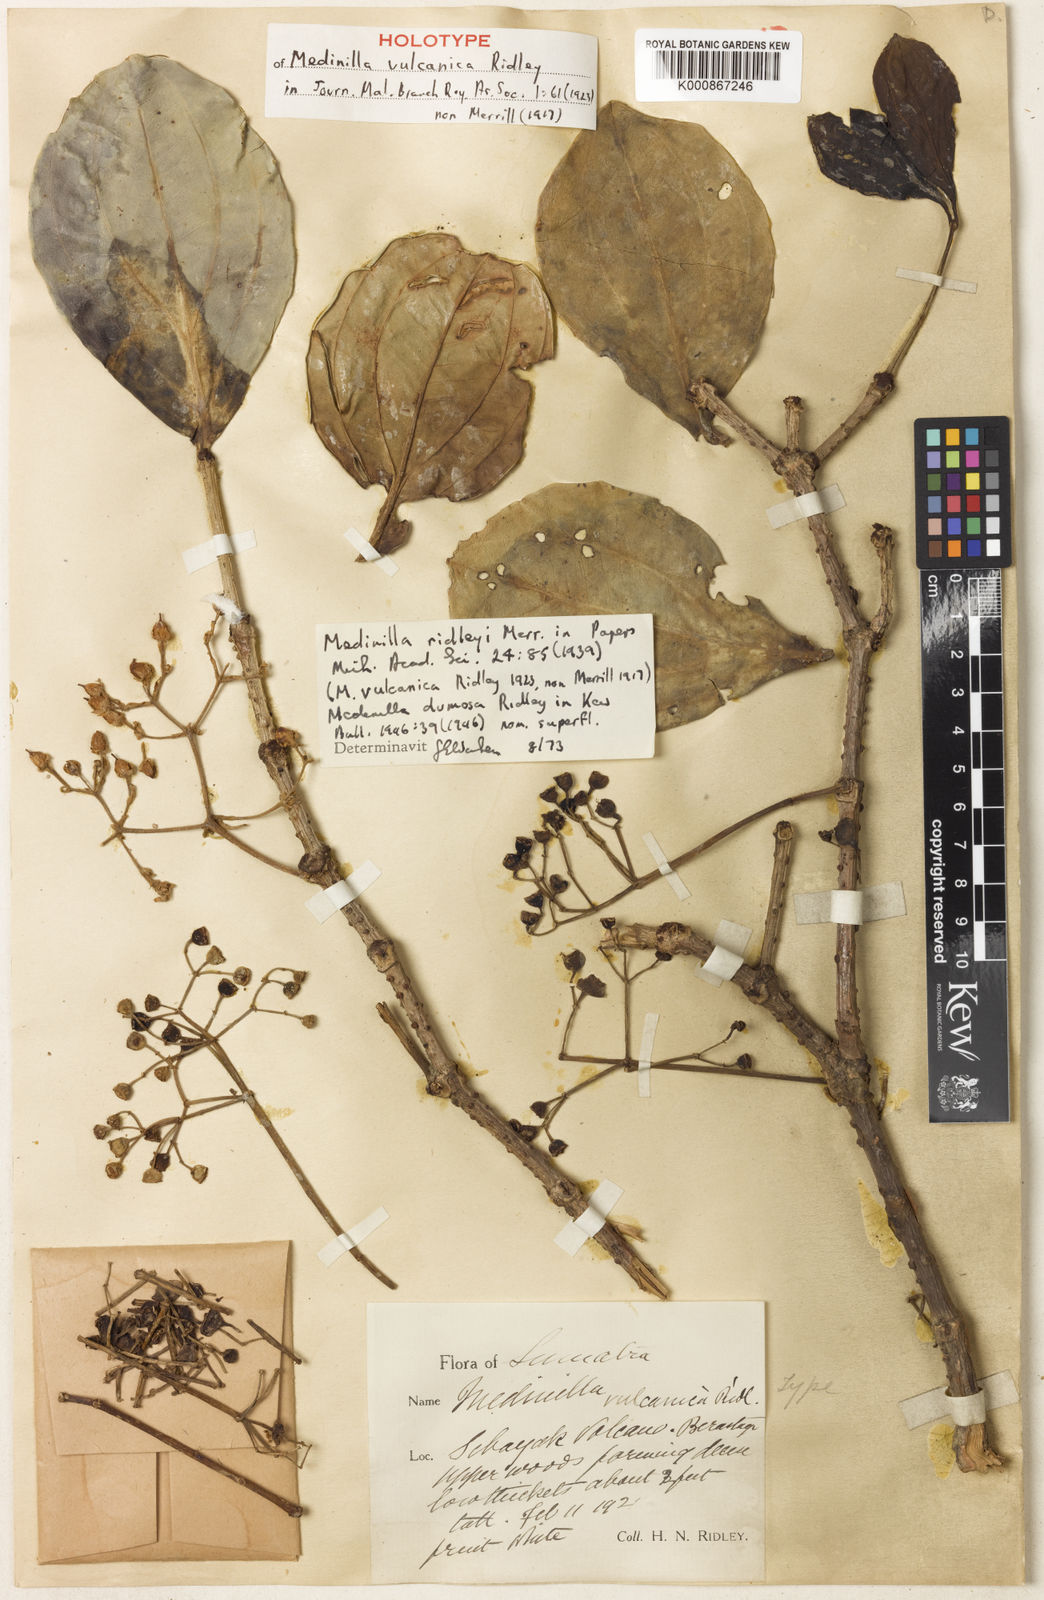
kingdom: Plantae
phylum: Tracheophyta
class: Magnoliopsida
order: Myrtales
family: Melastomataceae
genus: Medinilla
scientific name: Medinilla ridleyi
